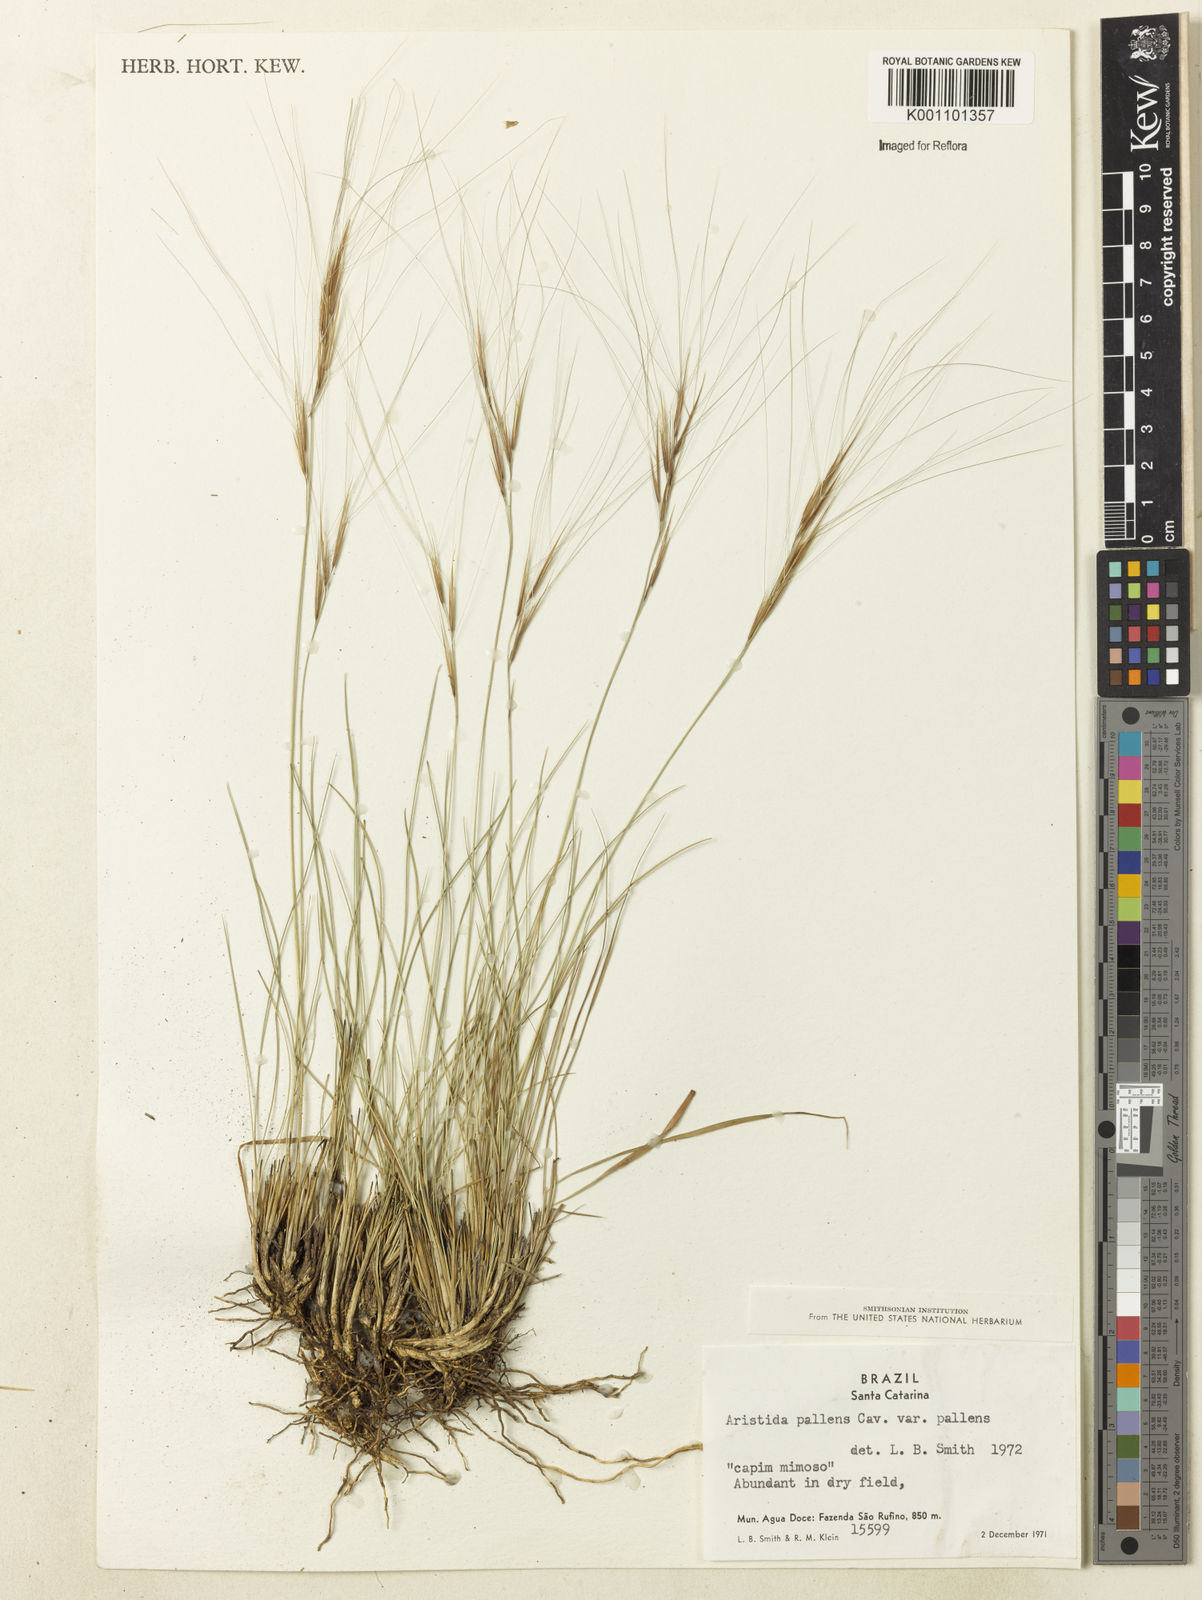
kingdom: Plantae
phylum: Tracheophyta
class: Liliopsida
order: Poales
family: Poaceae
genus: Aristida
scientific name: Aristida pallens
